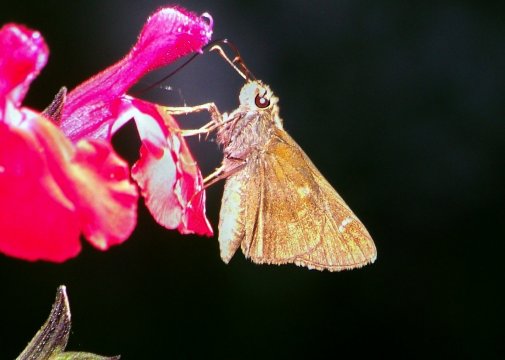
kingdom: Animalia
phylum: Arthropoda
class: Insecta
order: Lepidoptera
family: Hesperiidae
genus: Lerema
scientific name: Lerema accius
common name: Clouded Skipper
